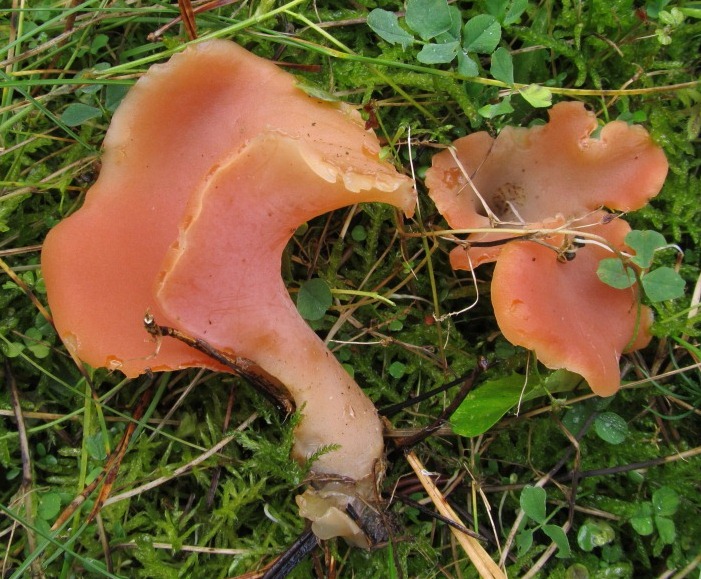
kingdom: Fungi
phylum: Basidiomycota
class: Agaricomycetes
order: Auriculariales
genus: Guepinia
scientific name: Guepinia helvelloides
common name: bævretunge
